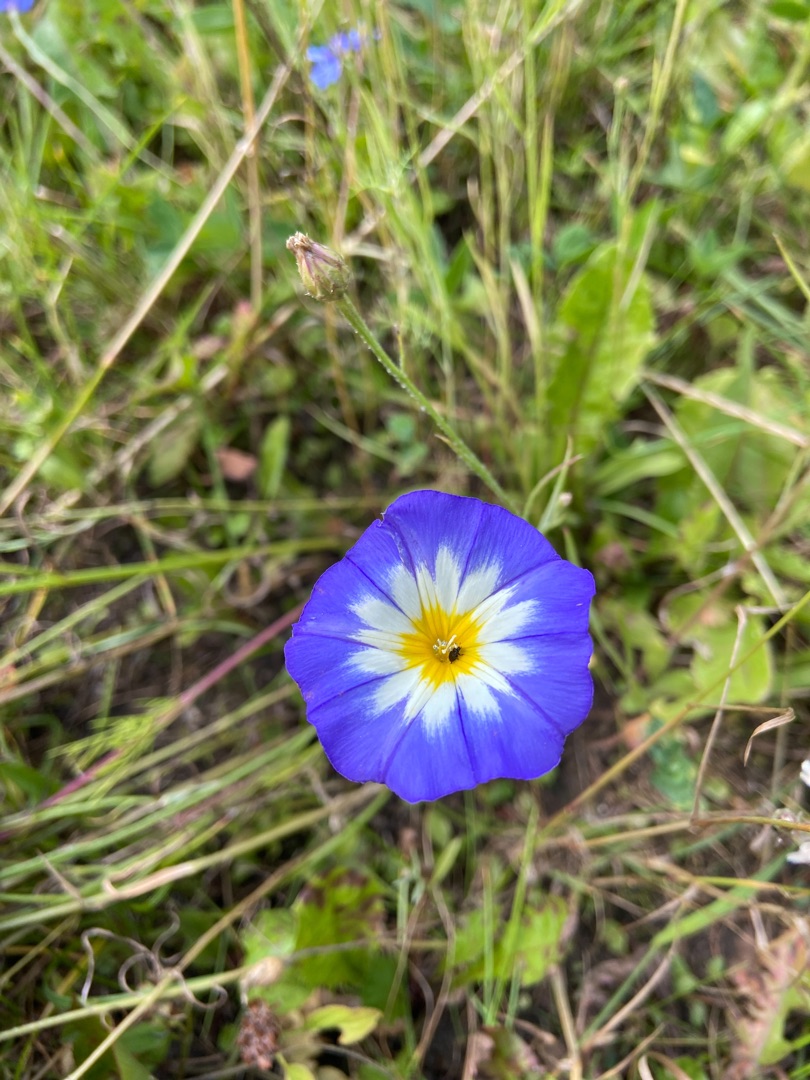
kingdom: Plantae
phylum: Tracheophyta
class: Magnoliopsida
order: Solanales
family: Convolvulaceae
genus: Convolvulus
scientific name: Convolvulus tricolor
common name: Jomfruskørt
